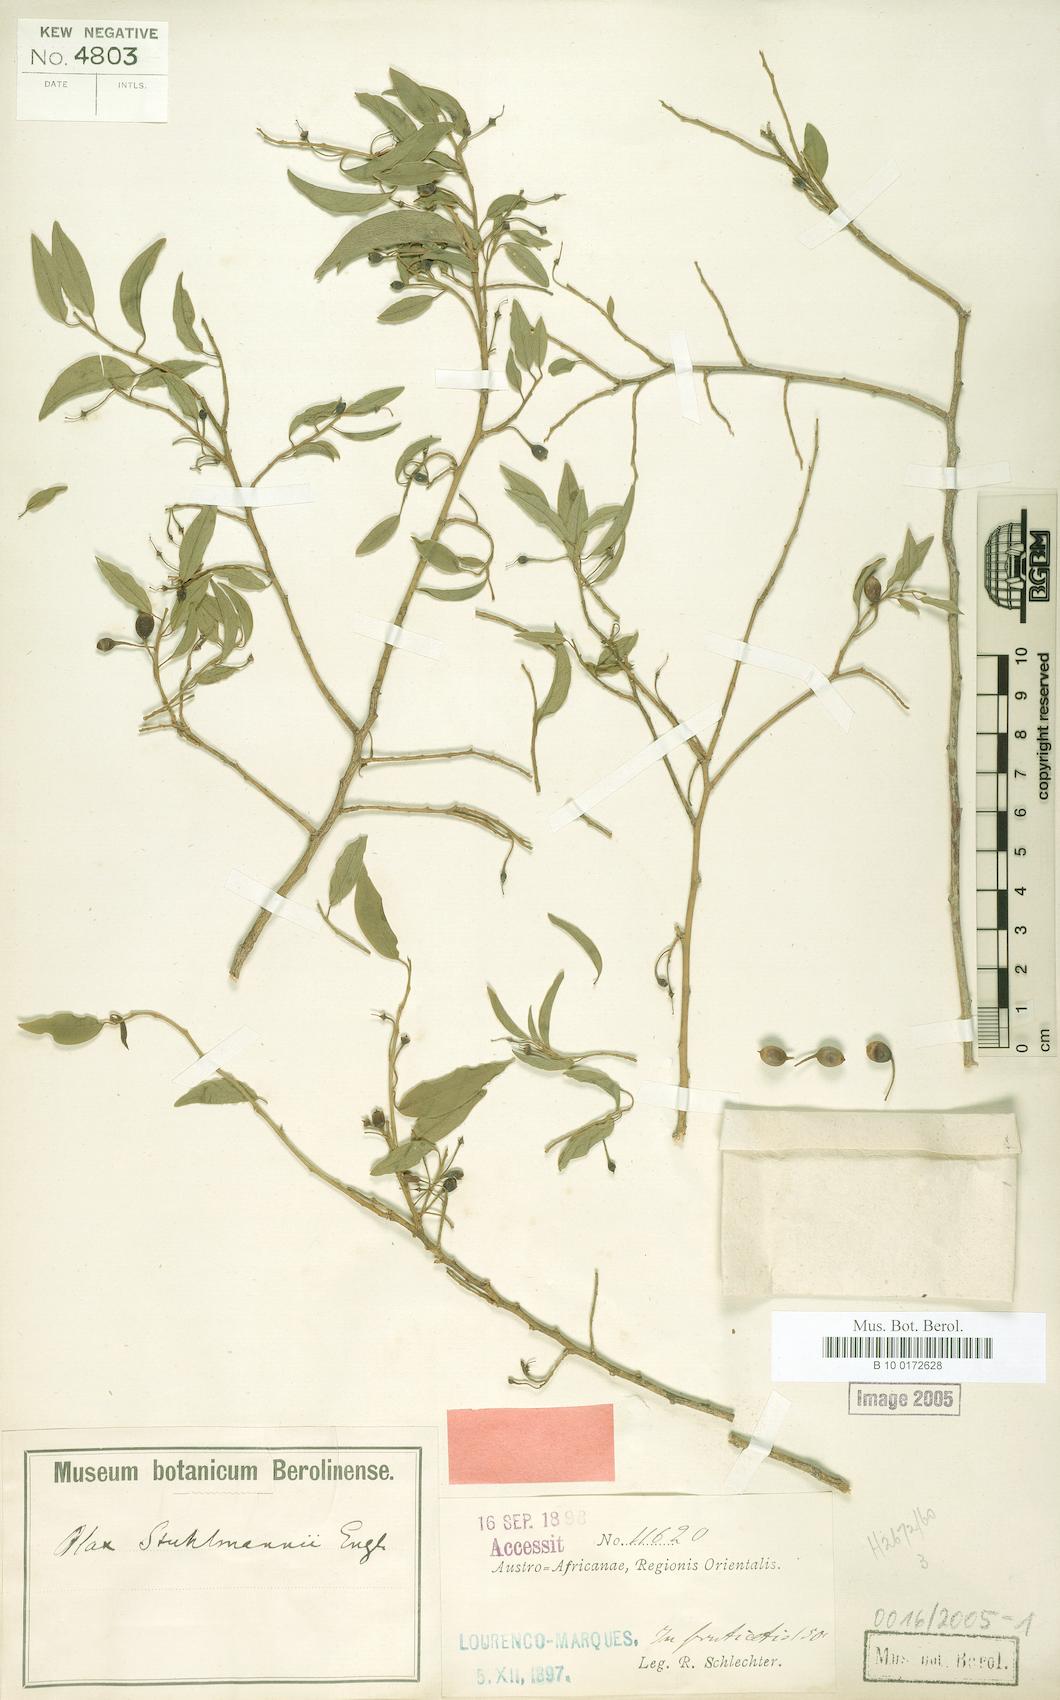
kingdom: Plantae
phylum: Tracheophyta
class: Magnoliopsida
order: Santalales
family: Olacaceae
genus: Olax
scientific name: Olax dissitiflora
